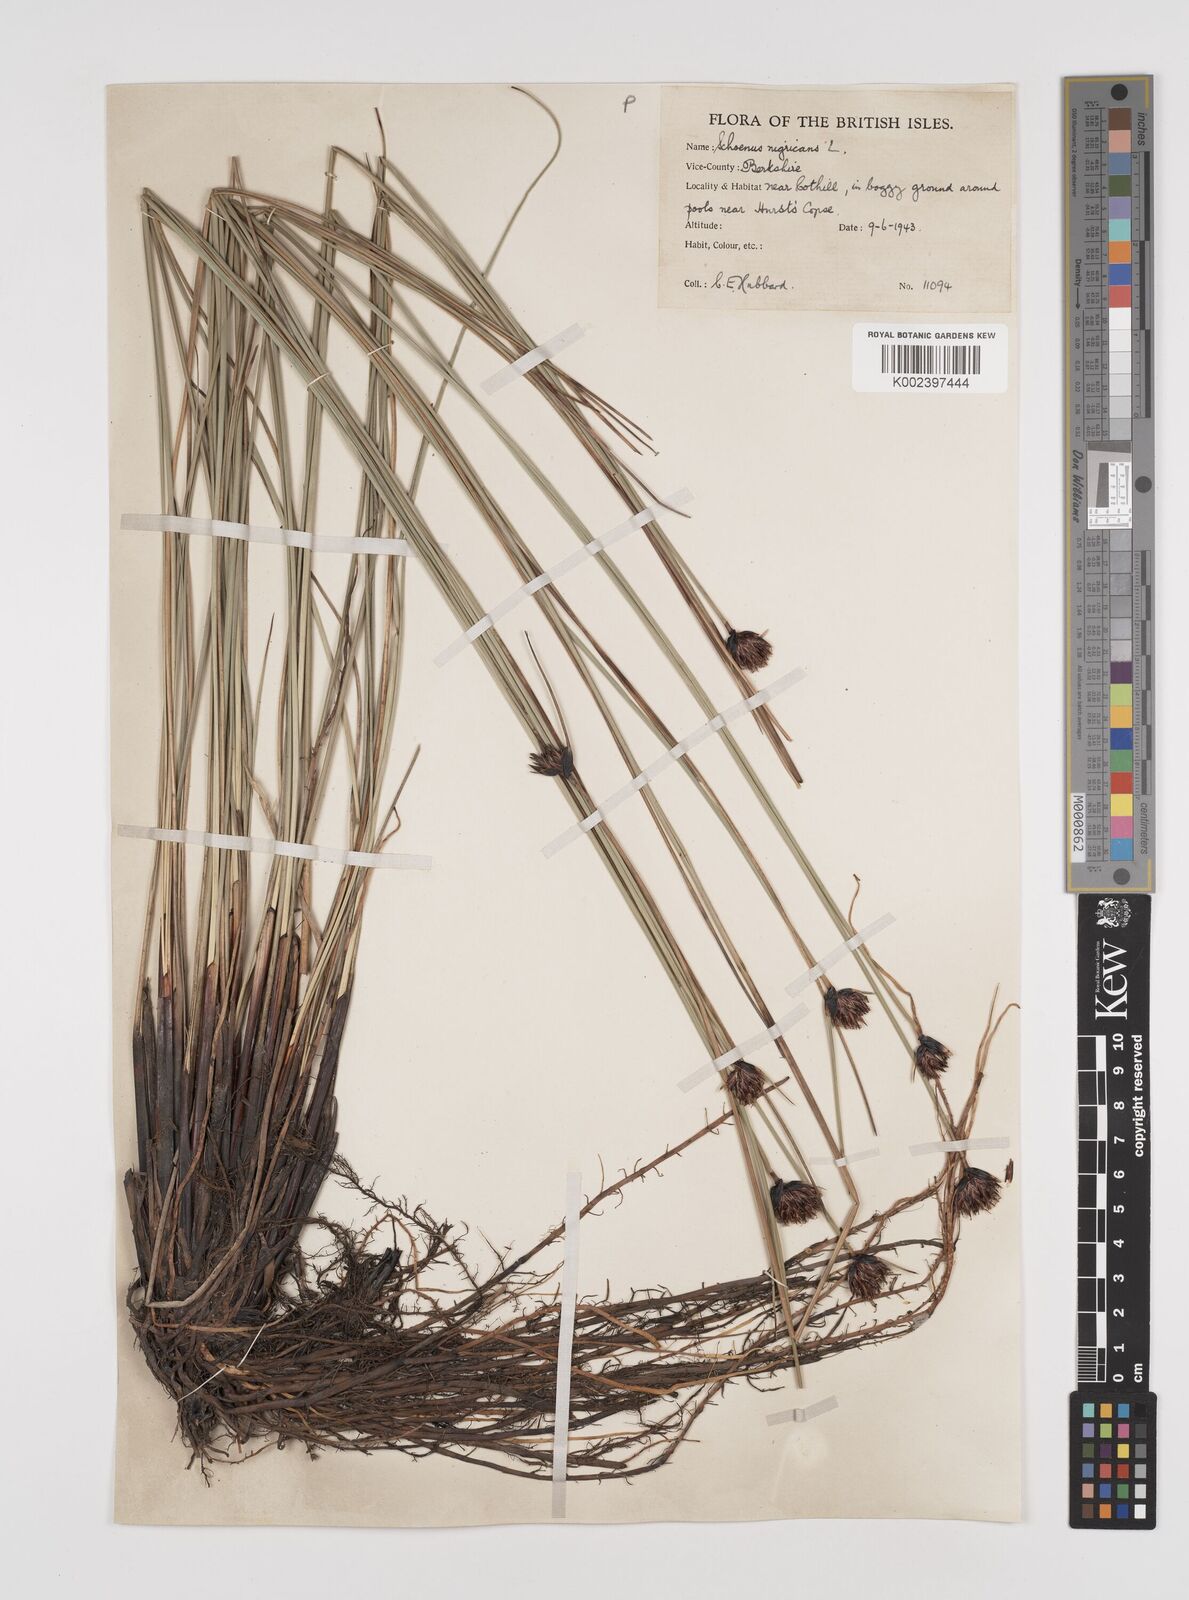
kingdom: Plantae
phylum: Tracheophyta
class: Liliopsida
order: Poales
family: Cyperaceae
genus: Schoenus
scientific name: Schoenus nigricans
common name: Black bog-rush
